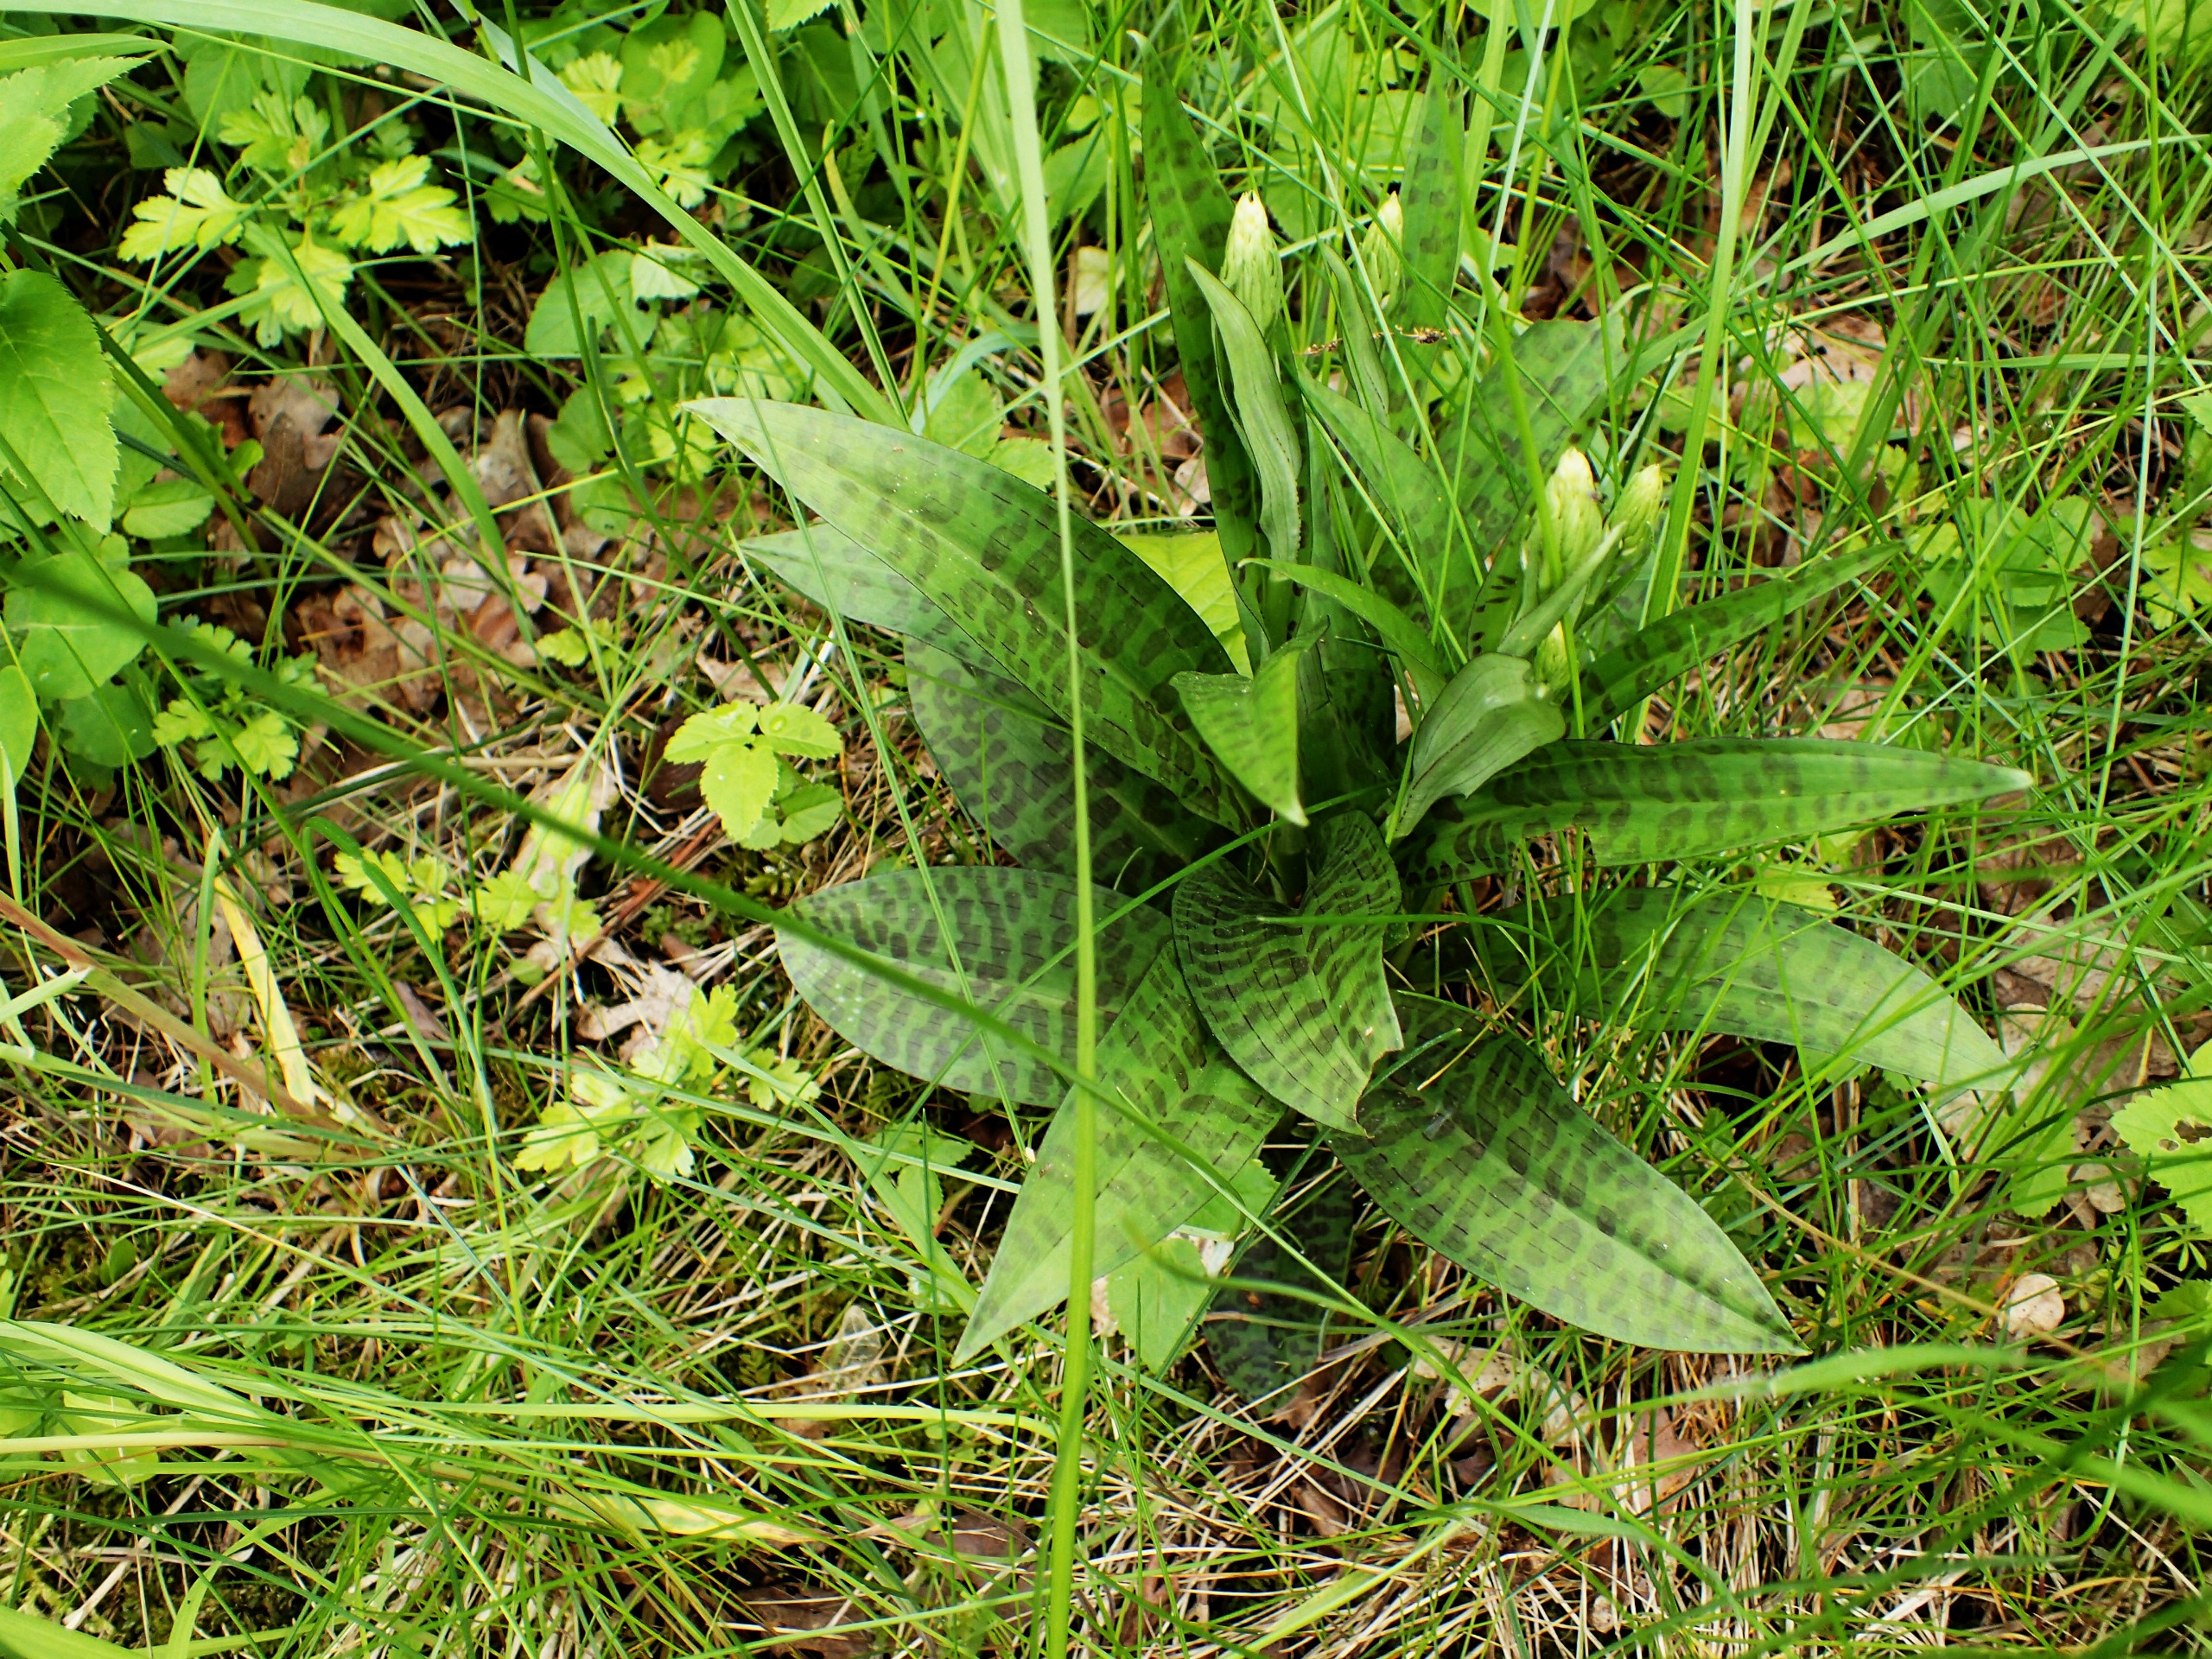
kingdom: Plantae
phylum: Tracheophyta
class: Liliopsida
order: Asparagales
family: Orchidaceae
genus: Dactylorhiza
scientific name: Dactylorhiza maculata
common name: Skov-gøgeurt
